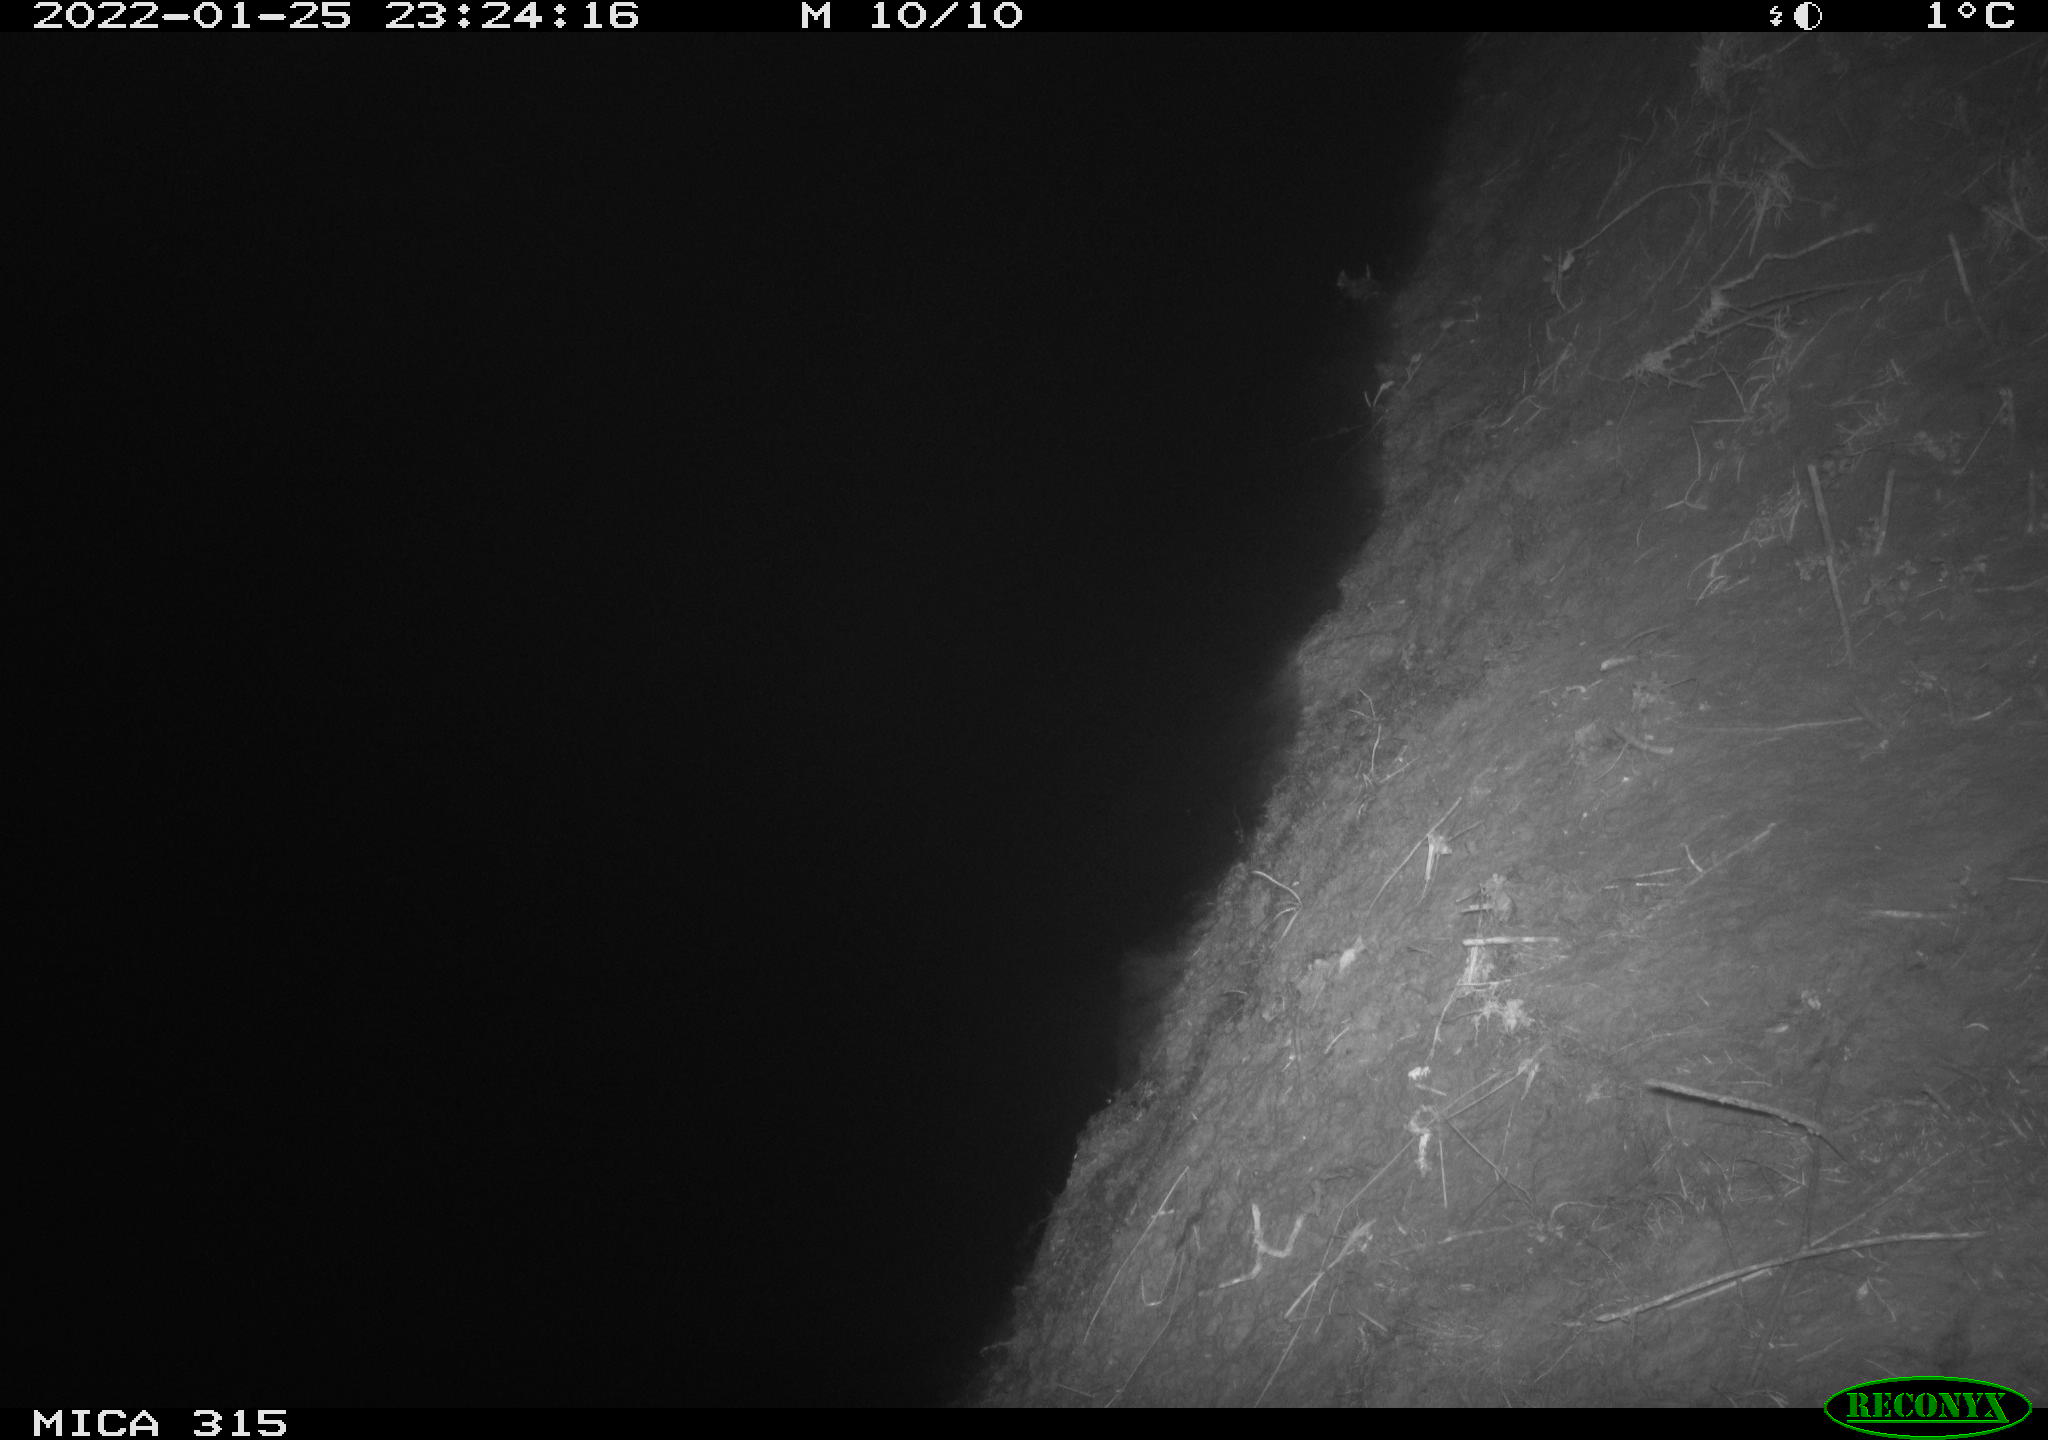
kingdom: Animalia
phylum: Chordata
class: Mammalia
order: Rodentia
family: Muridae
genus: Rattus
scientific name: Rattus norvegicus
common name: Brown rat
